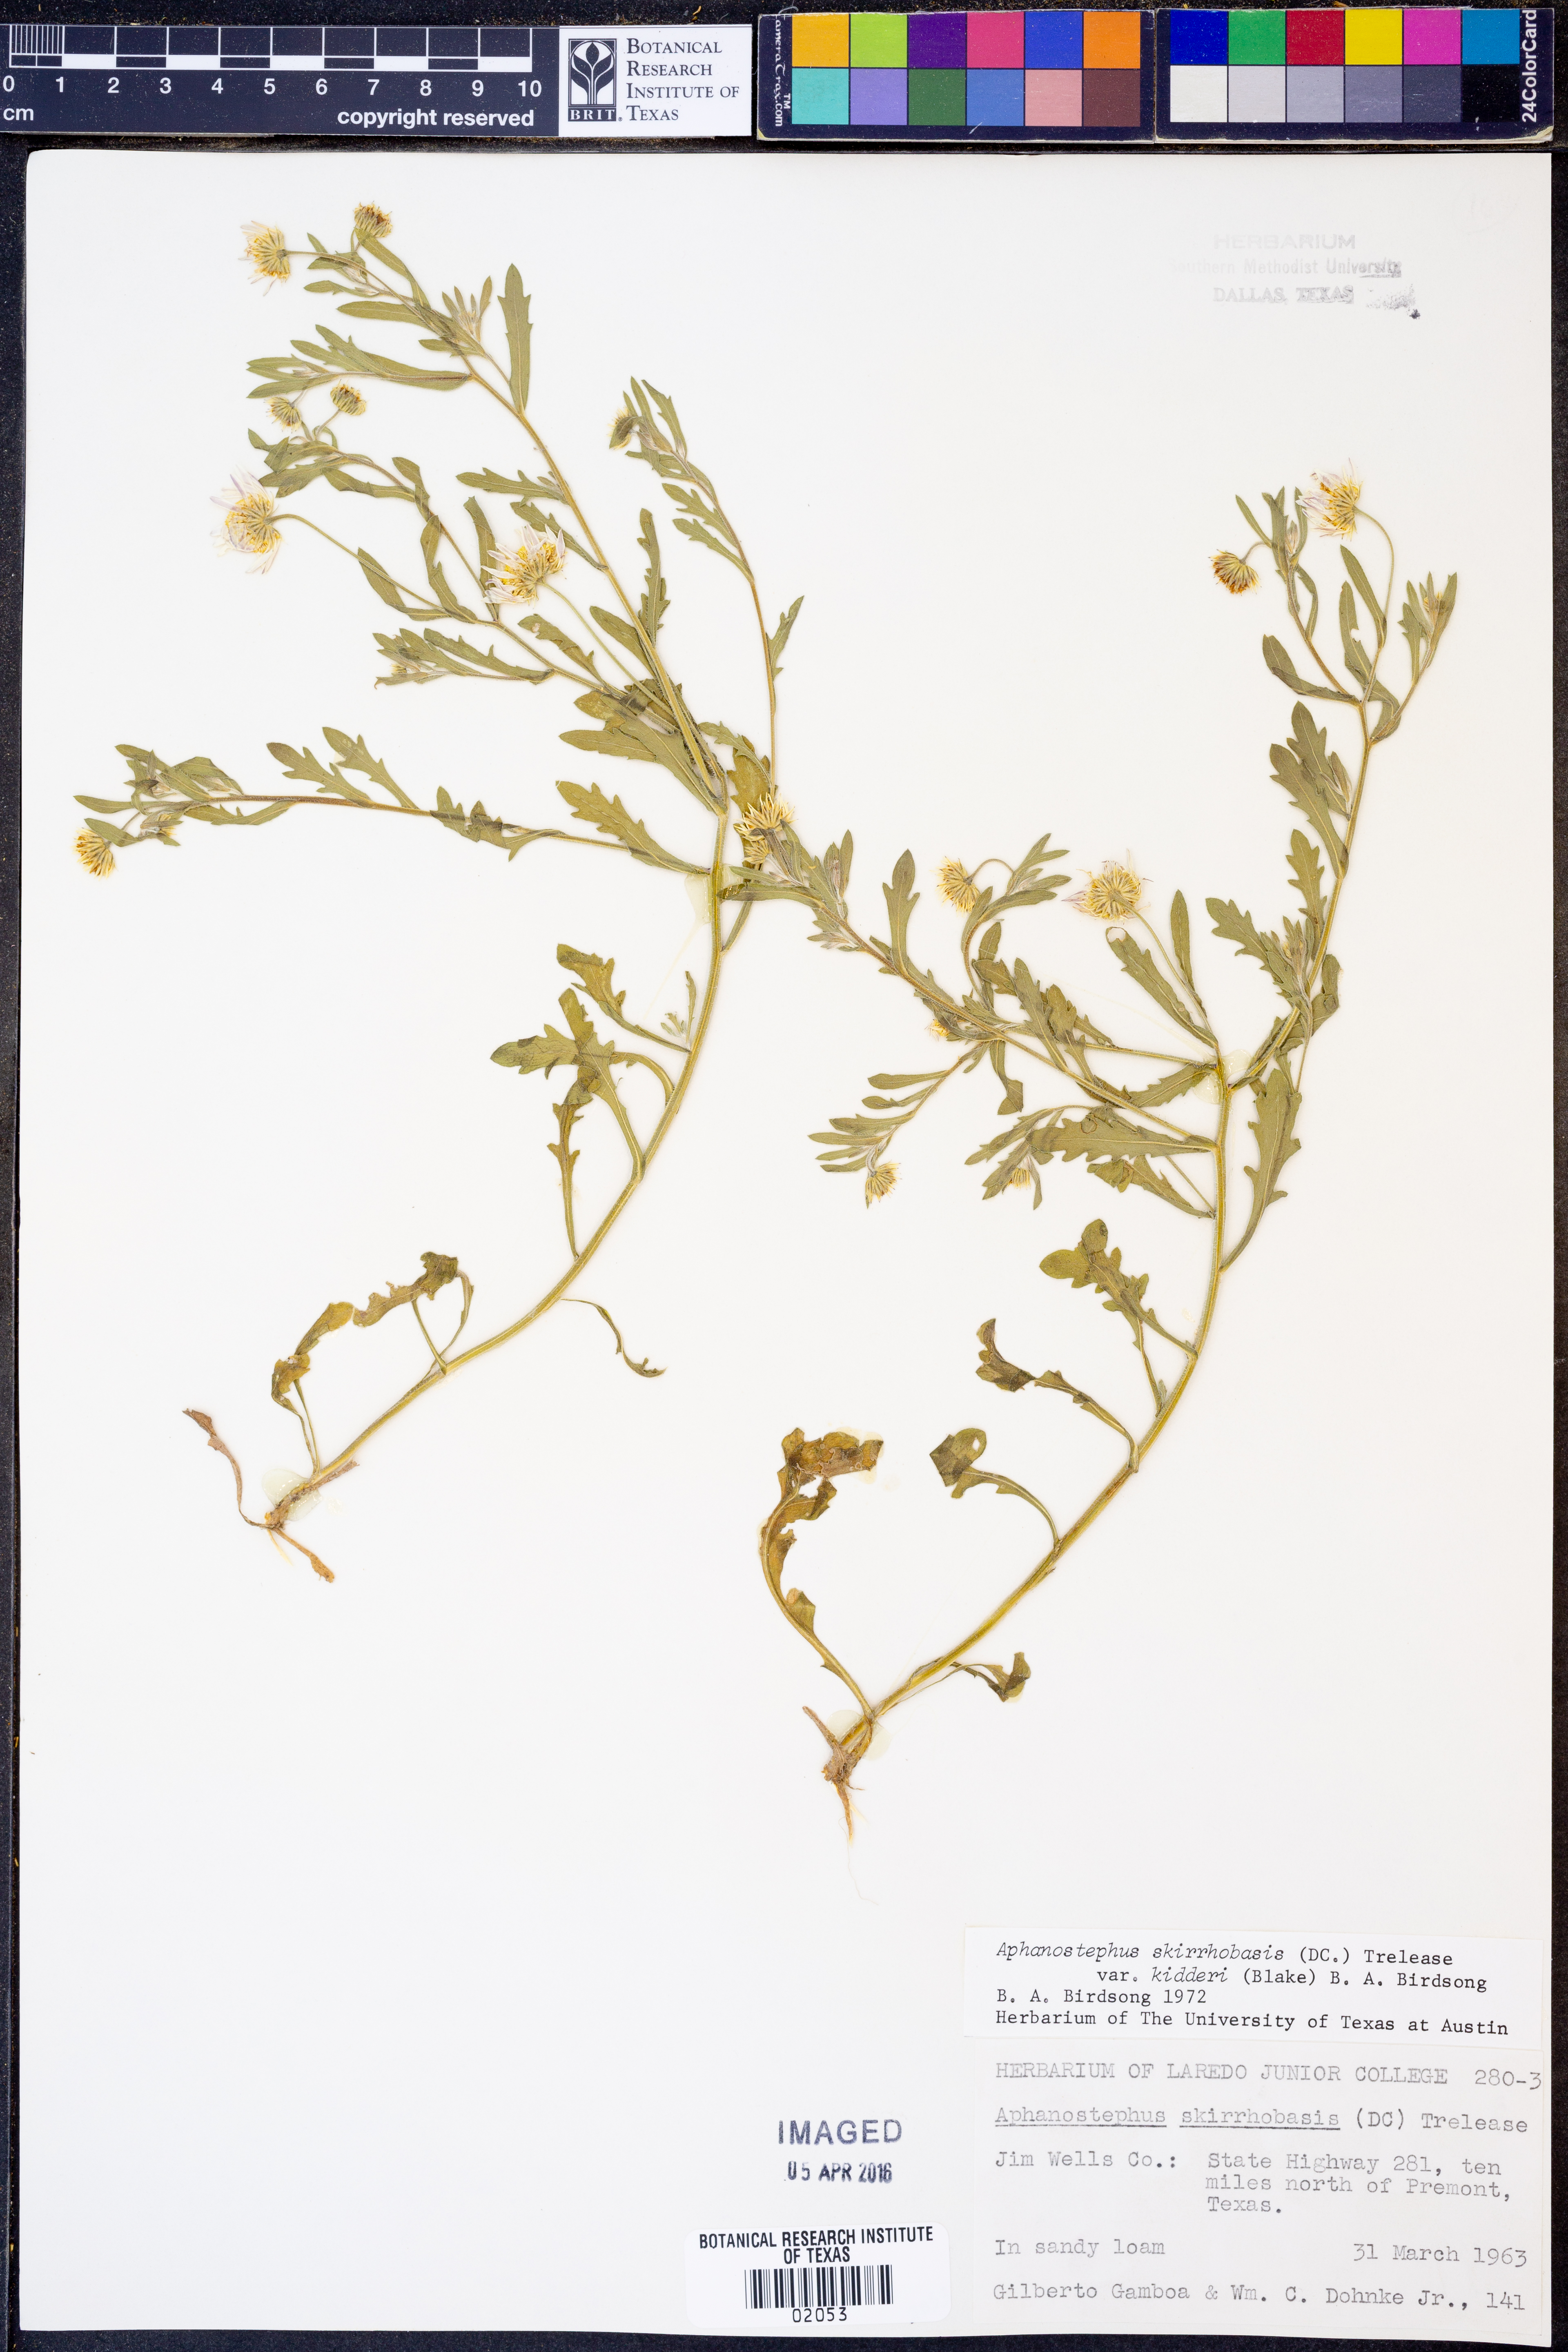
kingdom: Plantae
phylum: Tracheophyta
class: Magnoliopsida
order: Asterales
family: Asteraceae
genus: Aphanostephus
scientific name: Aphanostephus skirrhobasis
